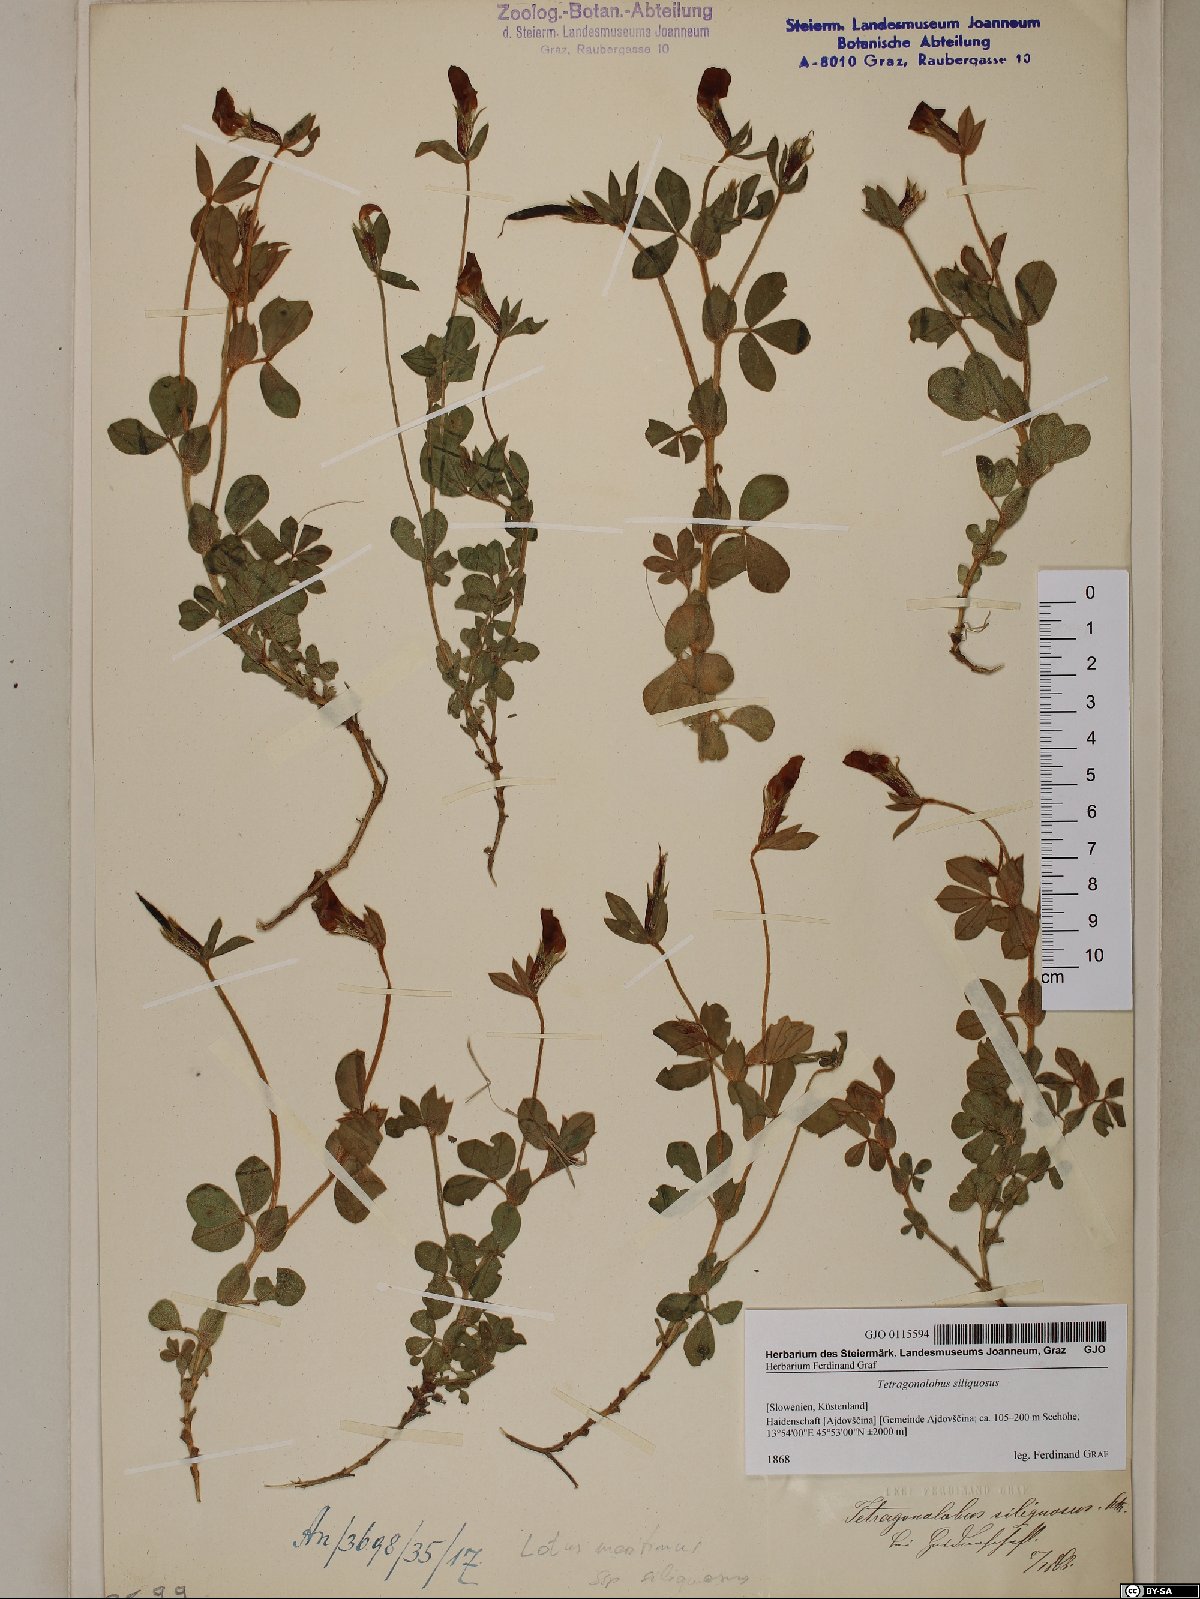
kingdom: Plantae
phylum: Tracheophyta
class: Magnoliopsida
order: Fabales
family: Fabaceae
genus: Lathyrus
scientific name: Lathyrus inconspicuus
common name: Inconspicuous pea
